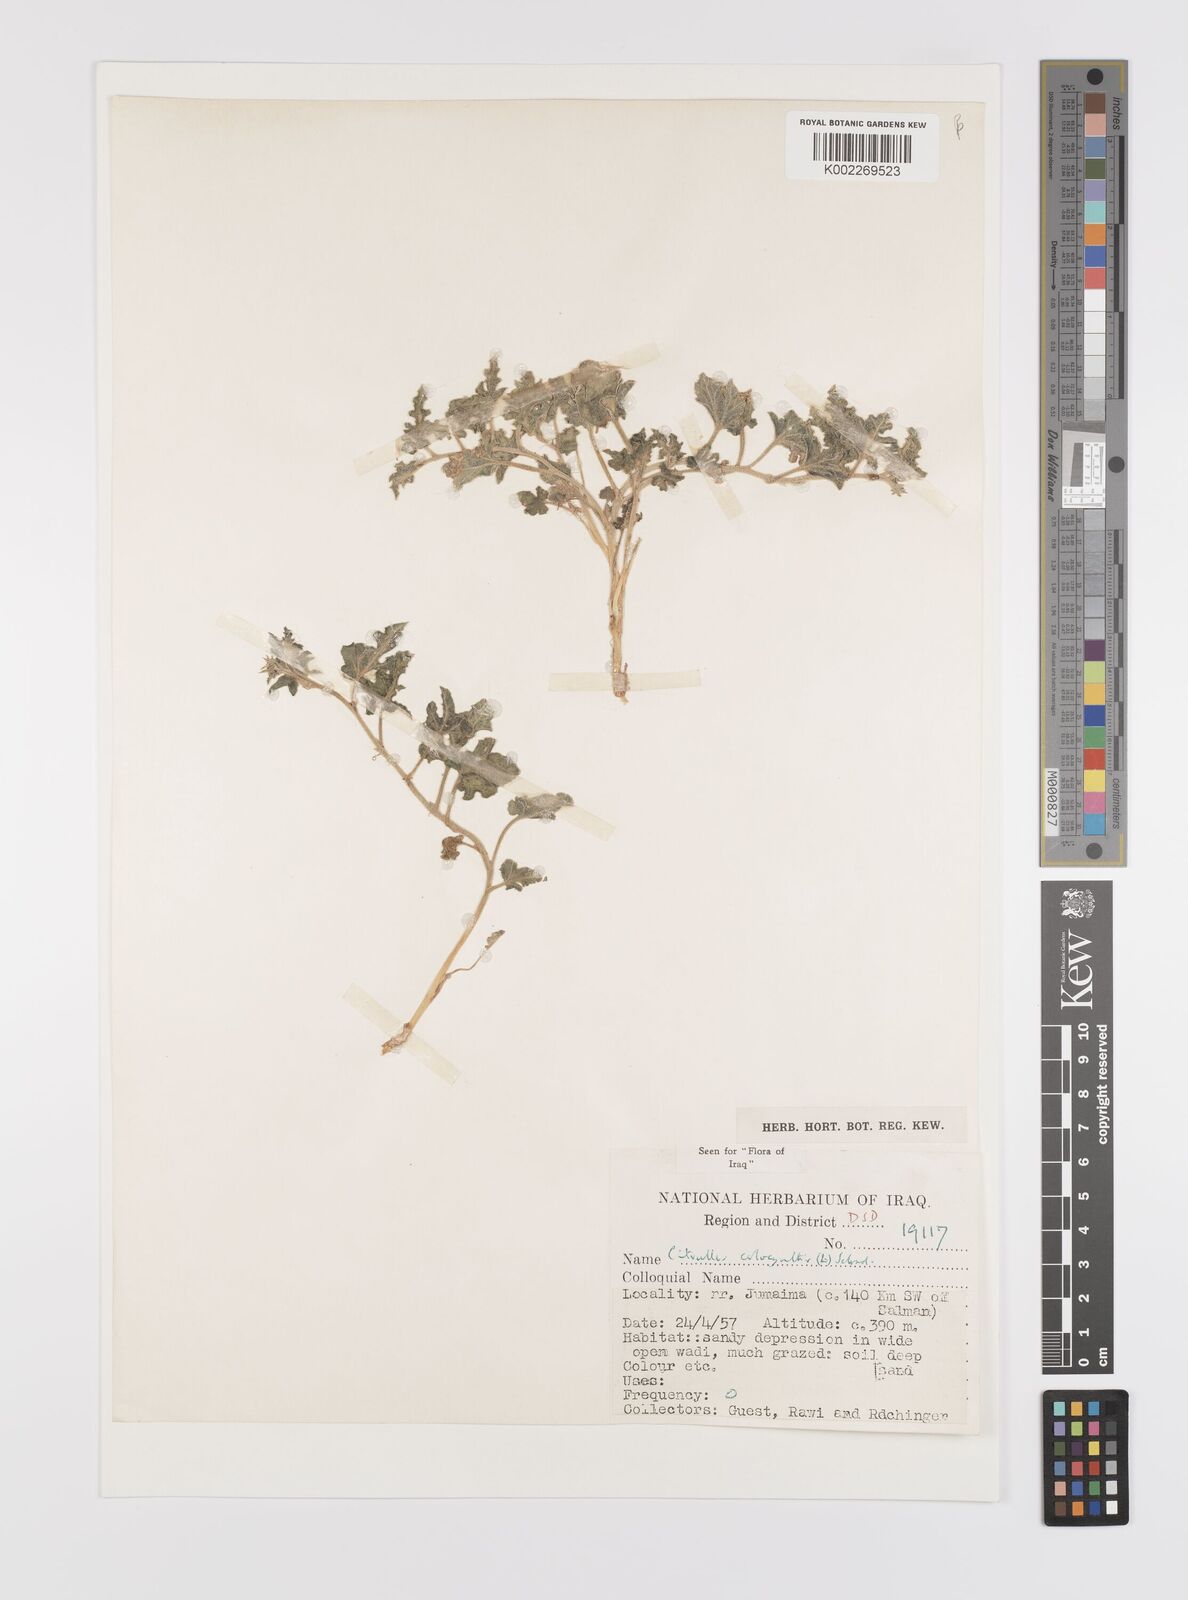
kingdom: Plantae
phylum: Tracheophyta
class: Magnoliopsida
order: Cucurbitales
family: Cucurbitaceae
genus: Citrullus
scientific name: Citrullus colocynthis
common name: Colocynth
